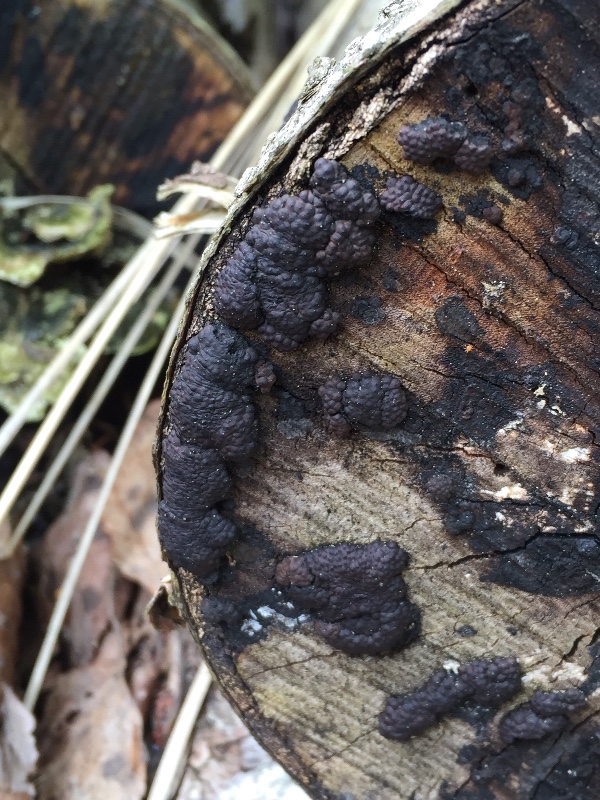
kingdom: Fungi
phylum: Ascomycota
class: Sordariomycetes
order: Xylariales
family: Hypoxylaceae
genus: Jackrogersella
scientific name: Jackrogersella multiformis
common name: foranderlig kulbær
